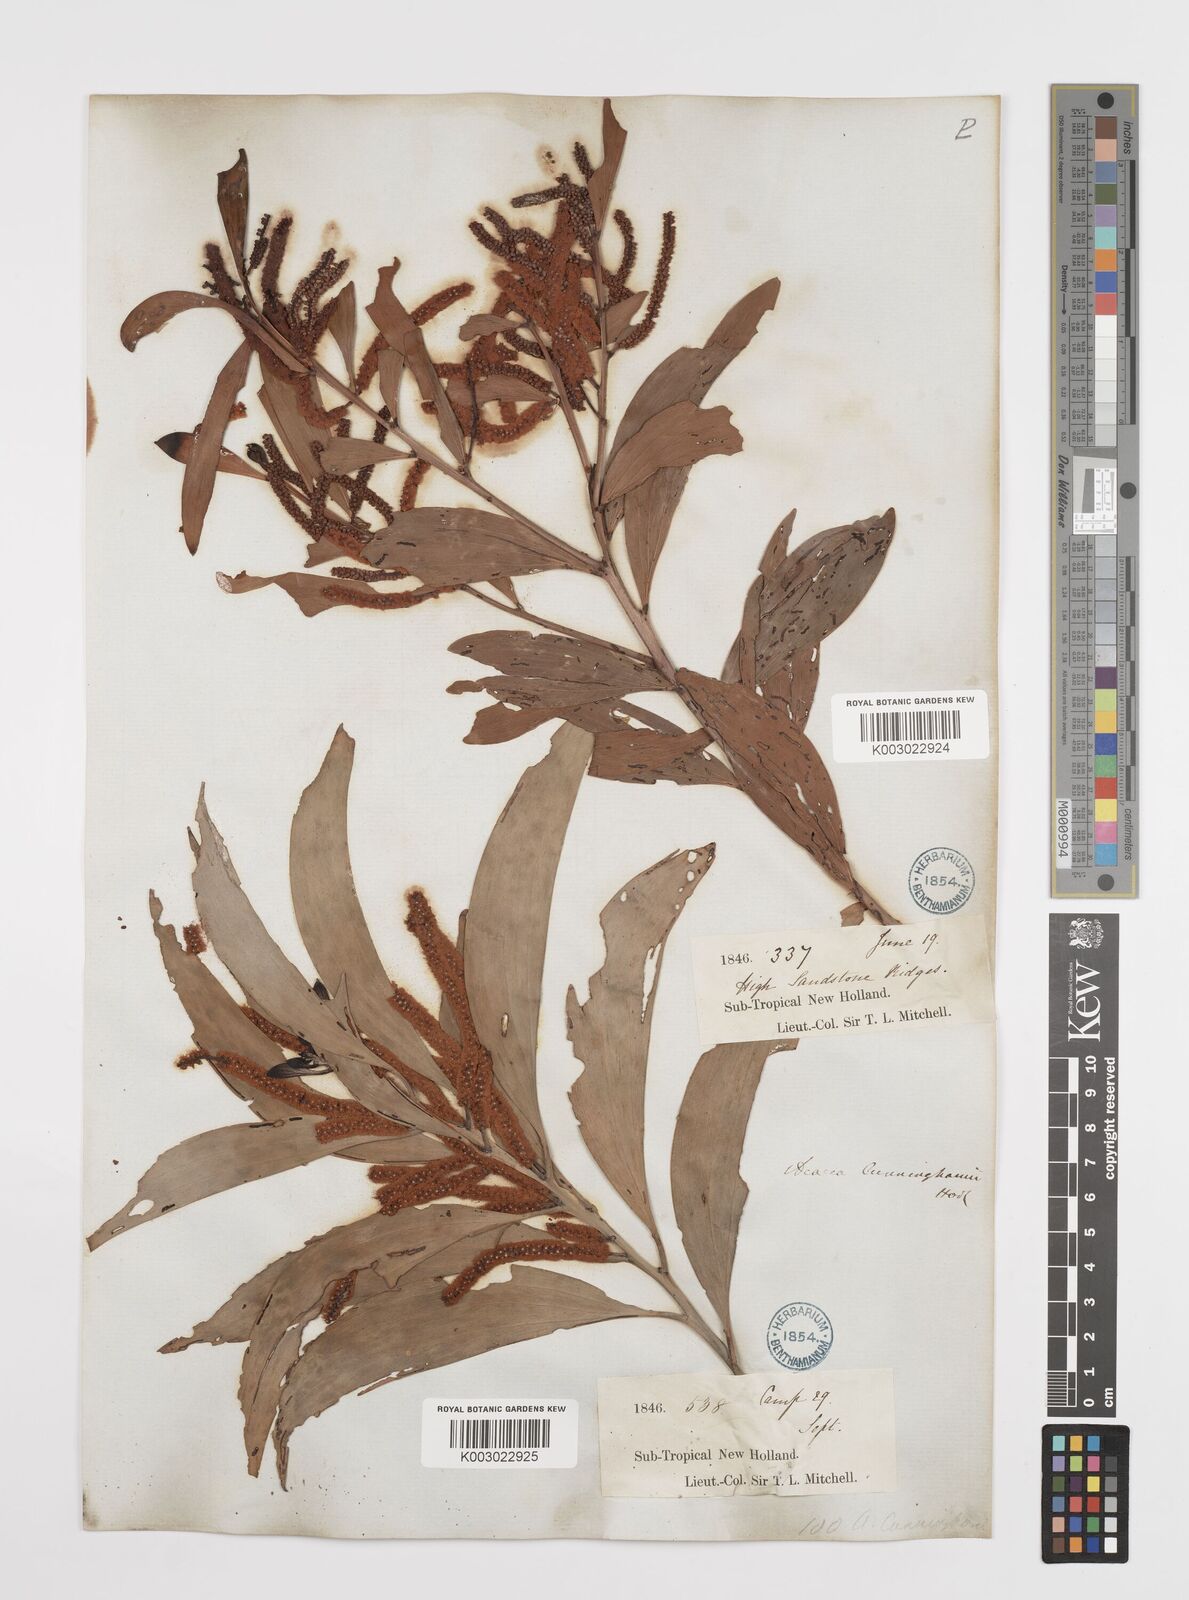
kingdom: Plantae
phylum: Tracheophyta
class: Magnoliopsida
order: Fabales
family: Fabaceae
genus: Acacia
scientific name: Acacia longispicata
